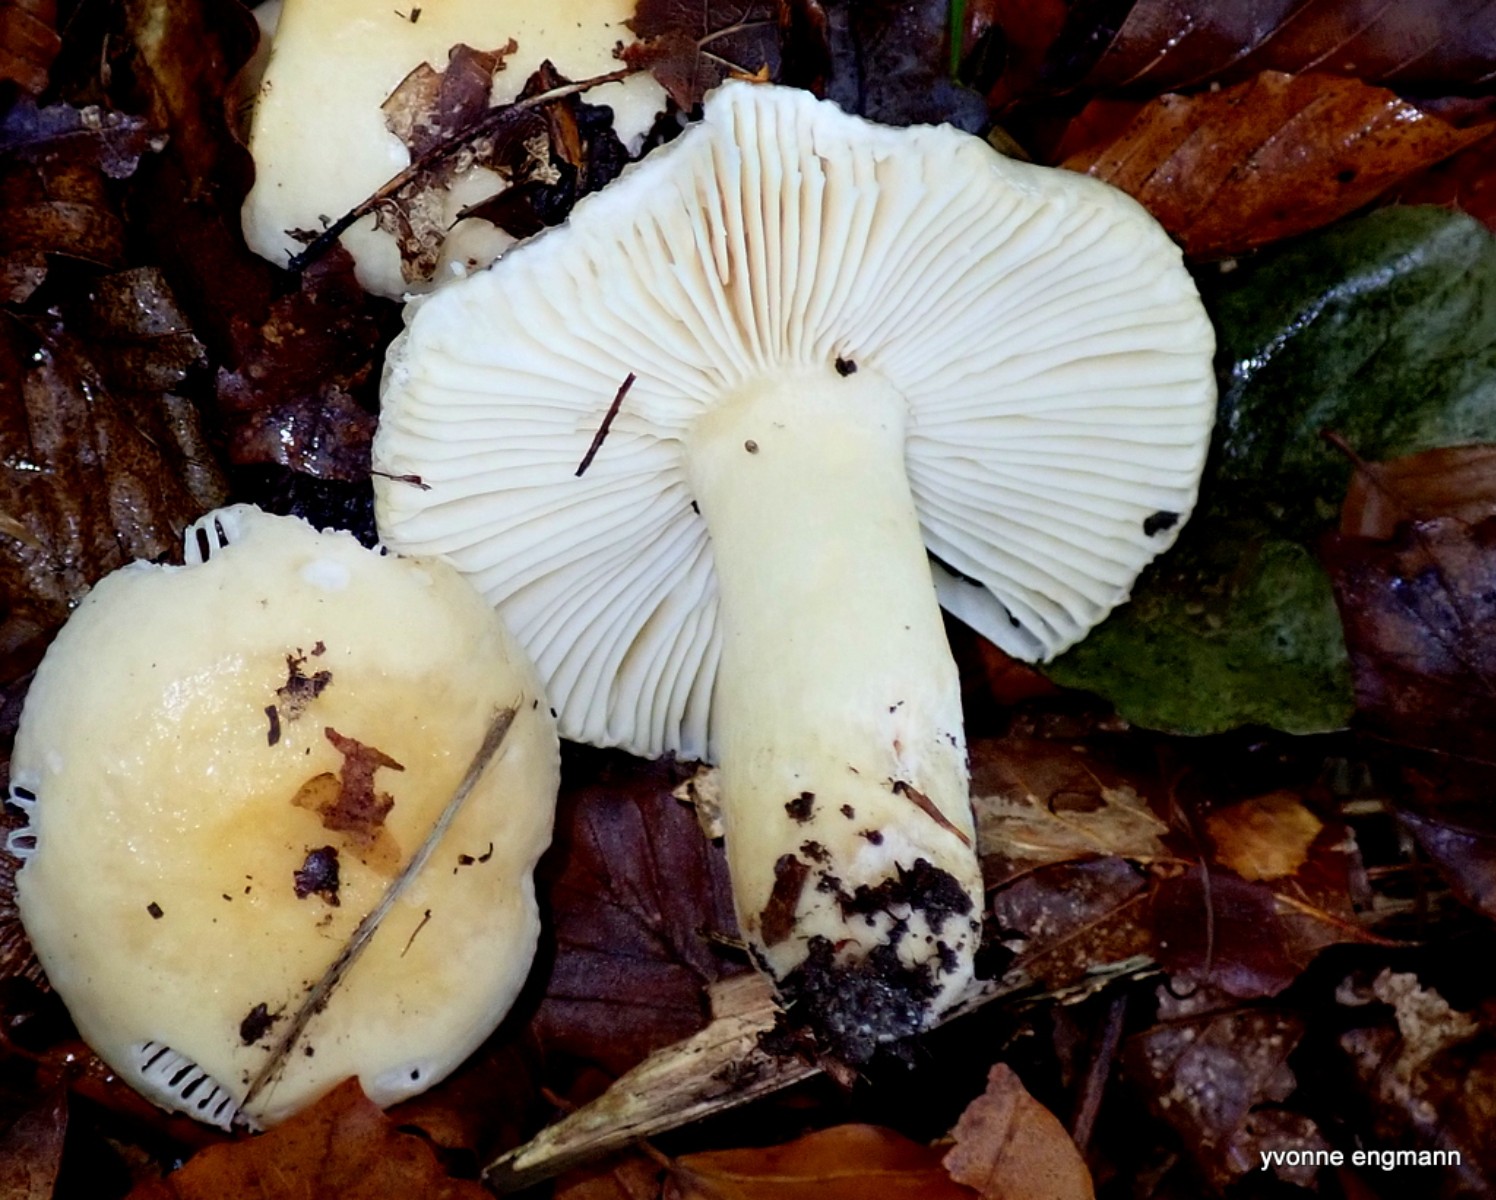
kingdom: Fungi
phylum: Basidiomycota
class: Agaricomycetes
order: Russulales
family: Russulaceae
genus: Russula
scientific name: Russula fellea
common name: galde-skørhat
